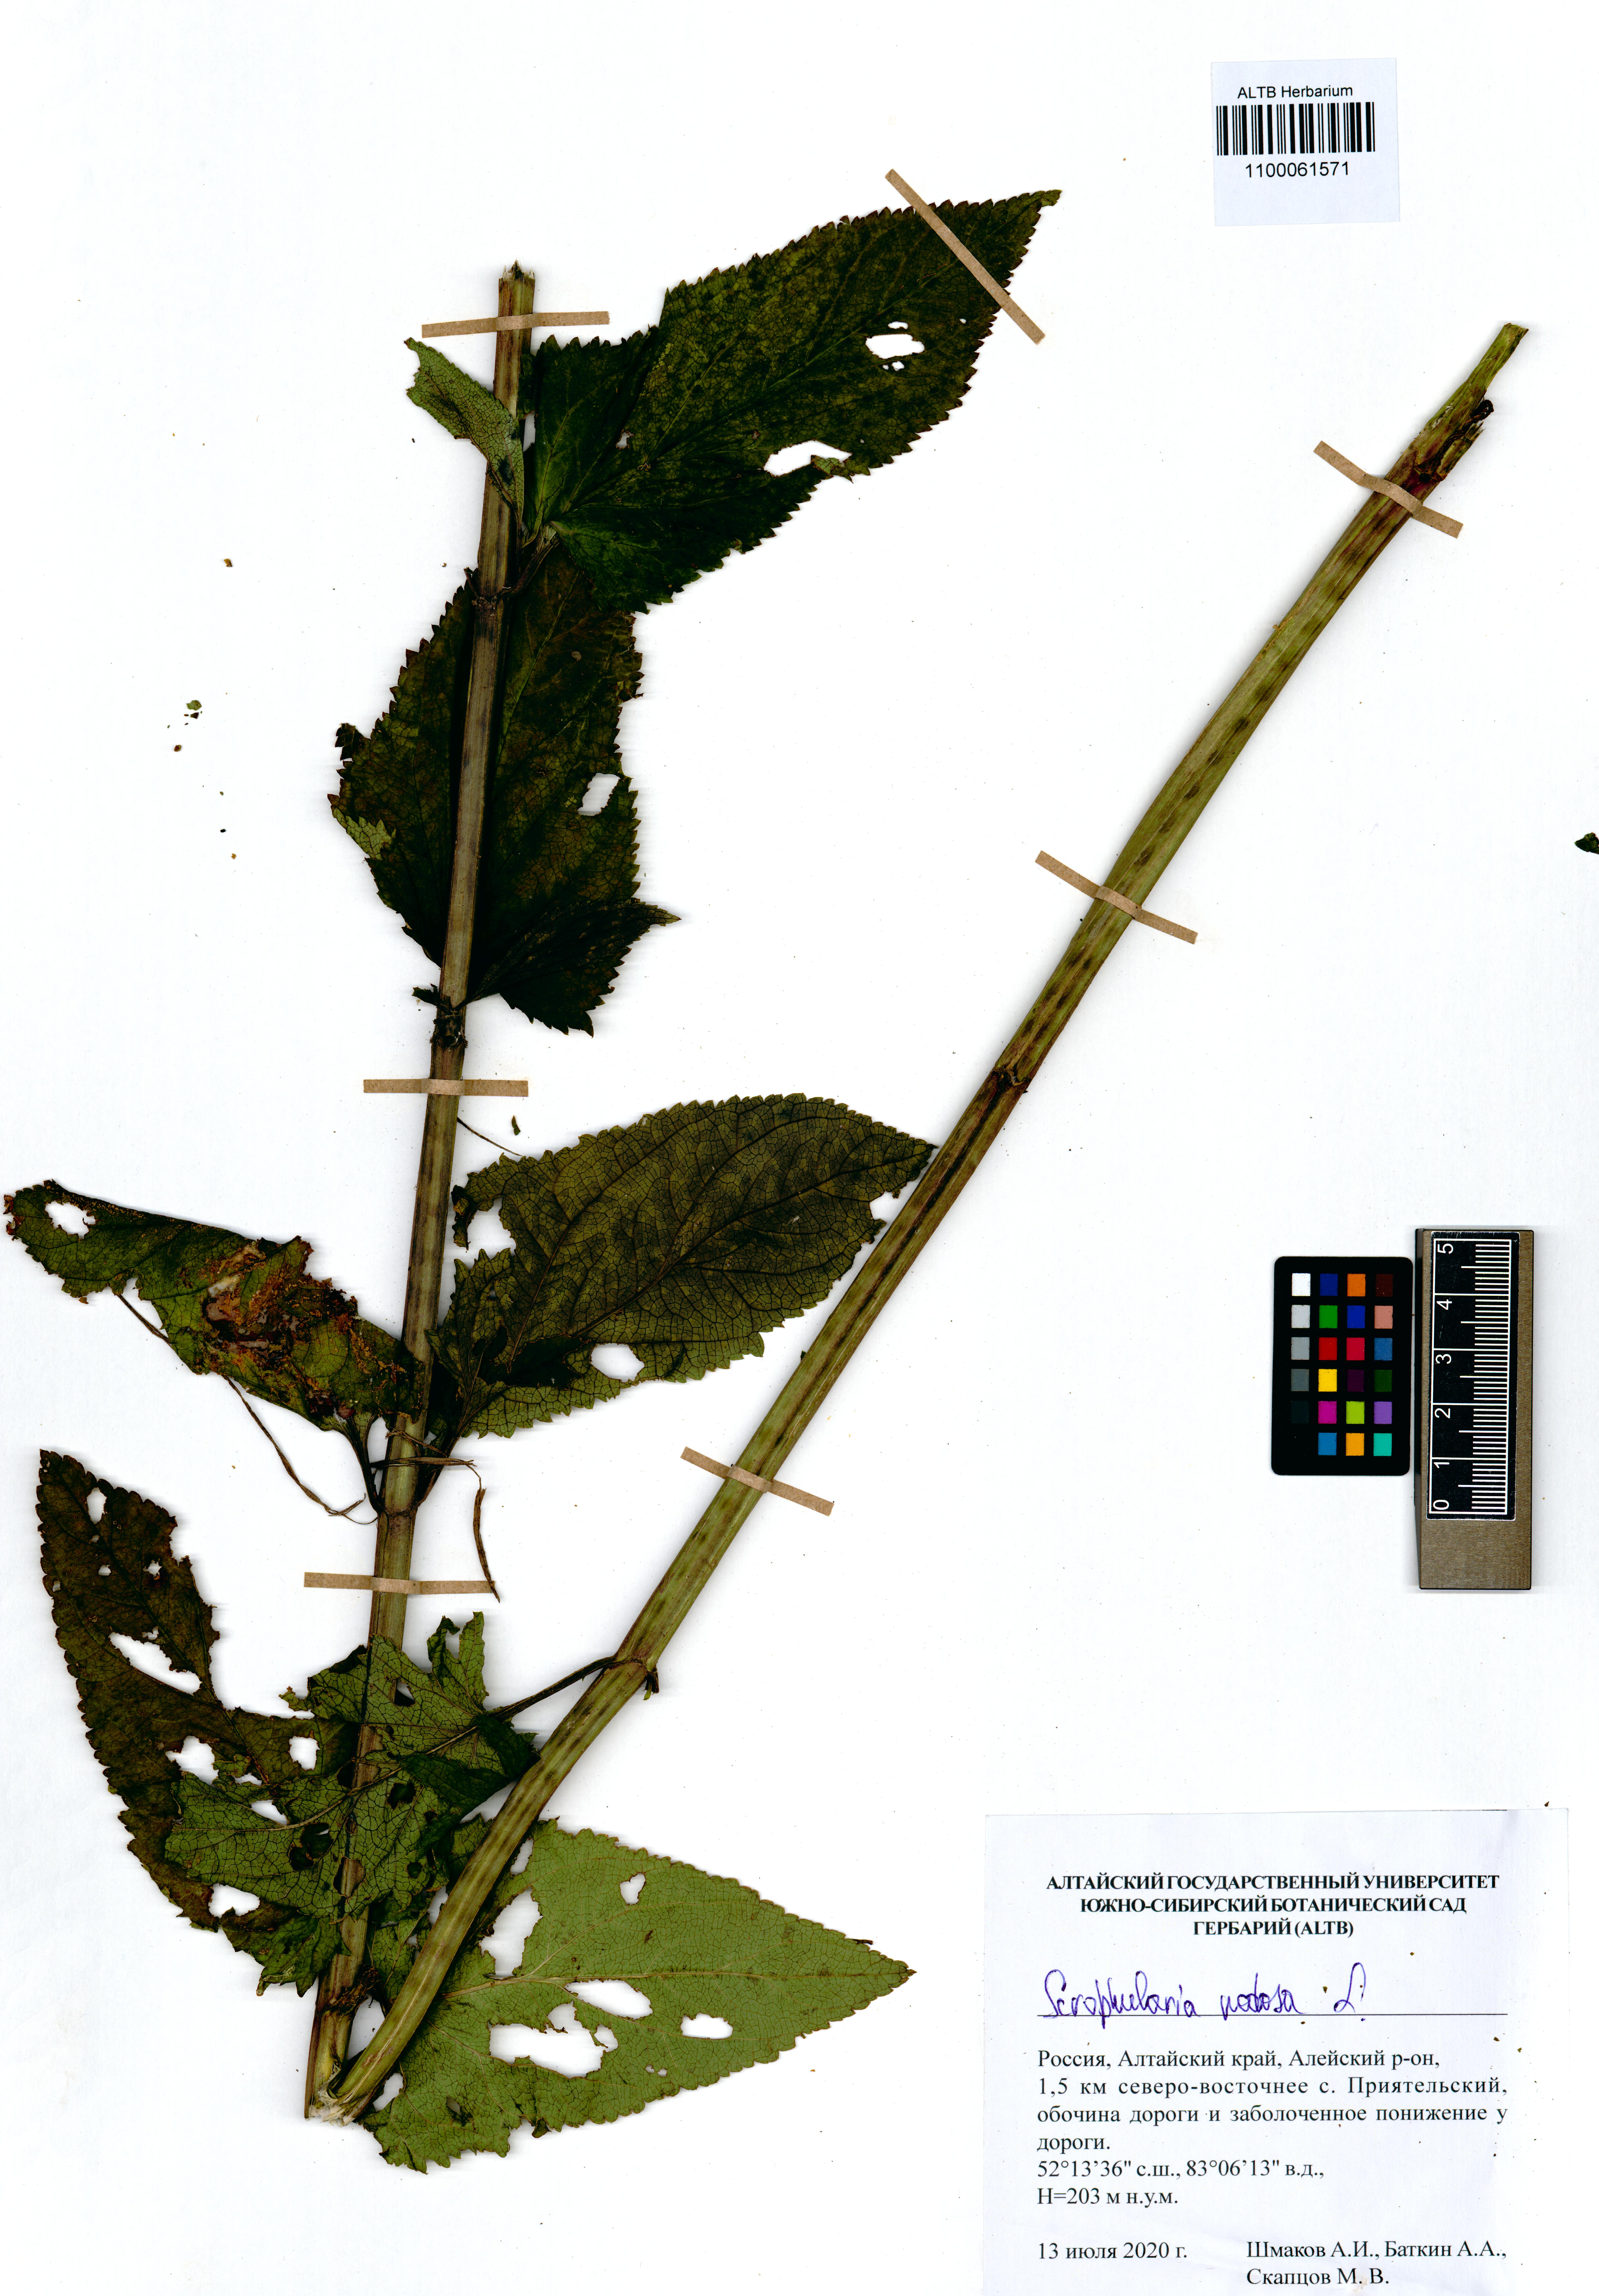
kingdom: Plantae
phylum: Tracheophyta
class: Magnoliopsida
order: Lamiales
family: Scrophulariaceae
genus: Scrophularia
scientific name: Scrophularia nodosa
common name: Common figwort
